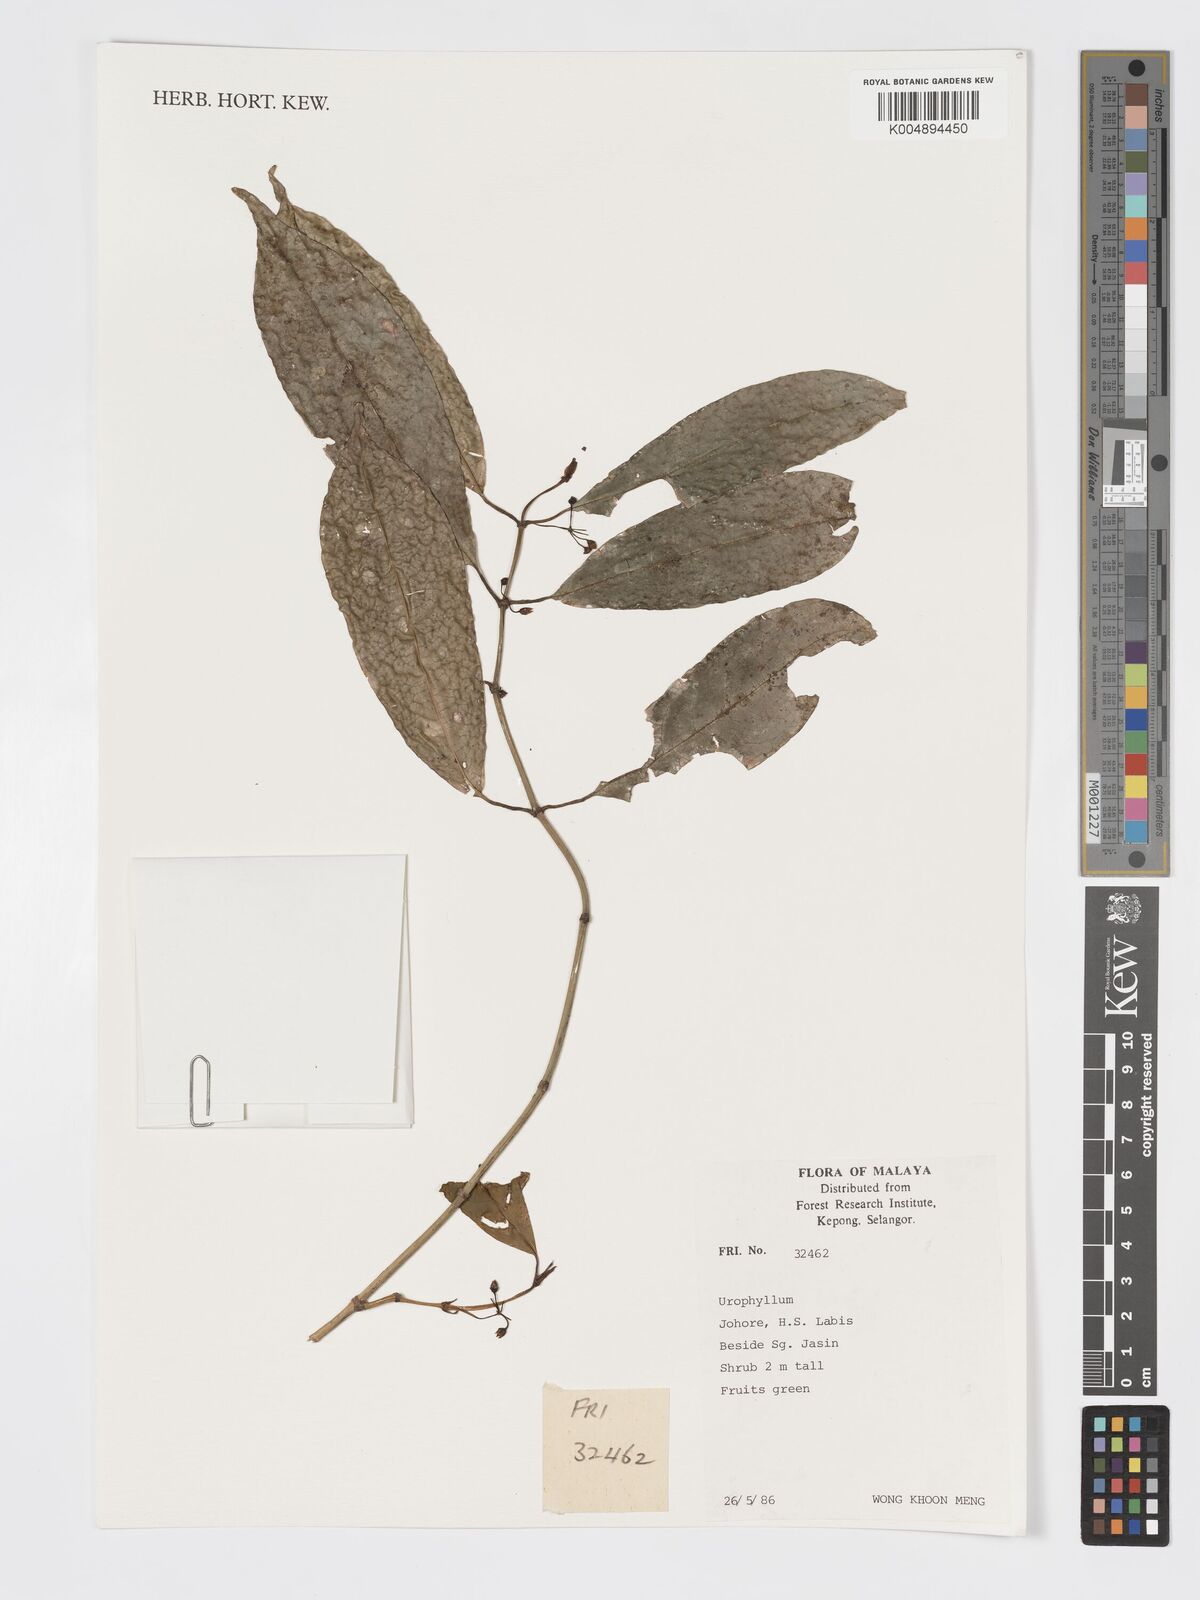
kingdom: Plantae
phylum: Tracheophyta
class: Magnoliopsida
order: Gentianales
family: Rubiaceae
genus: Urophyllum
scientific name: Urophyllum griffithianum
